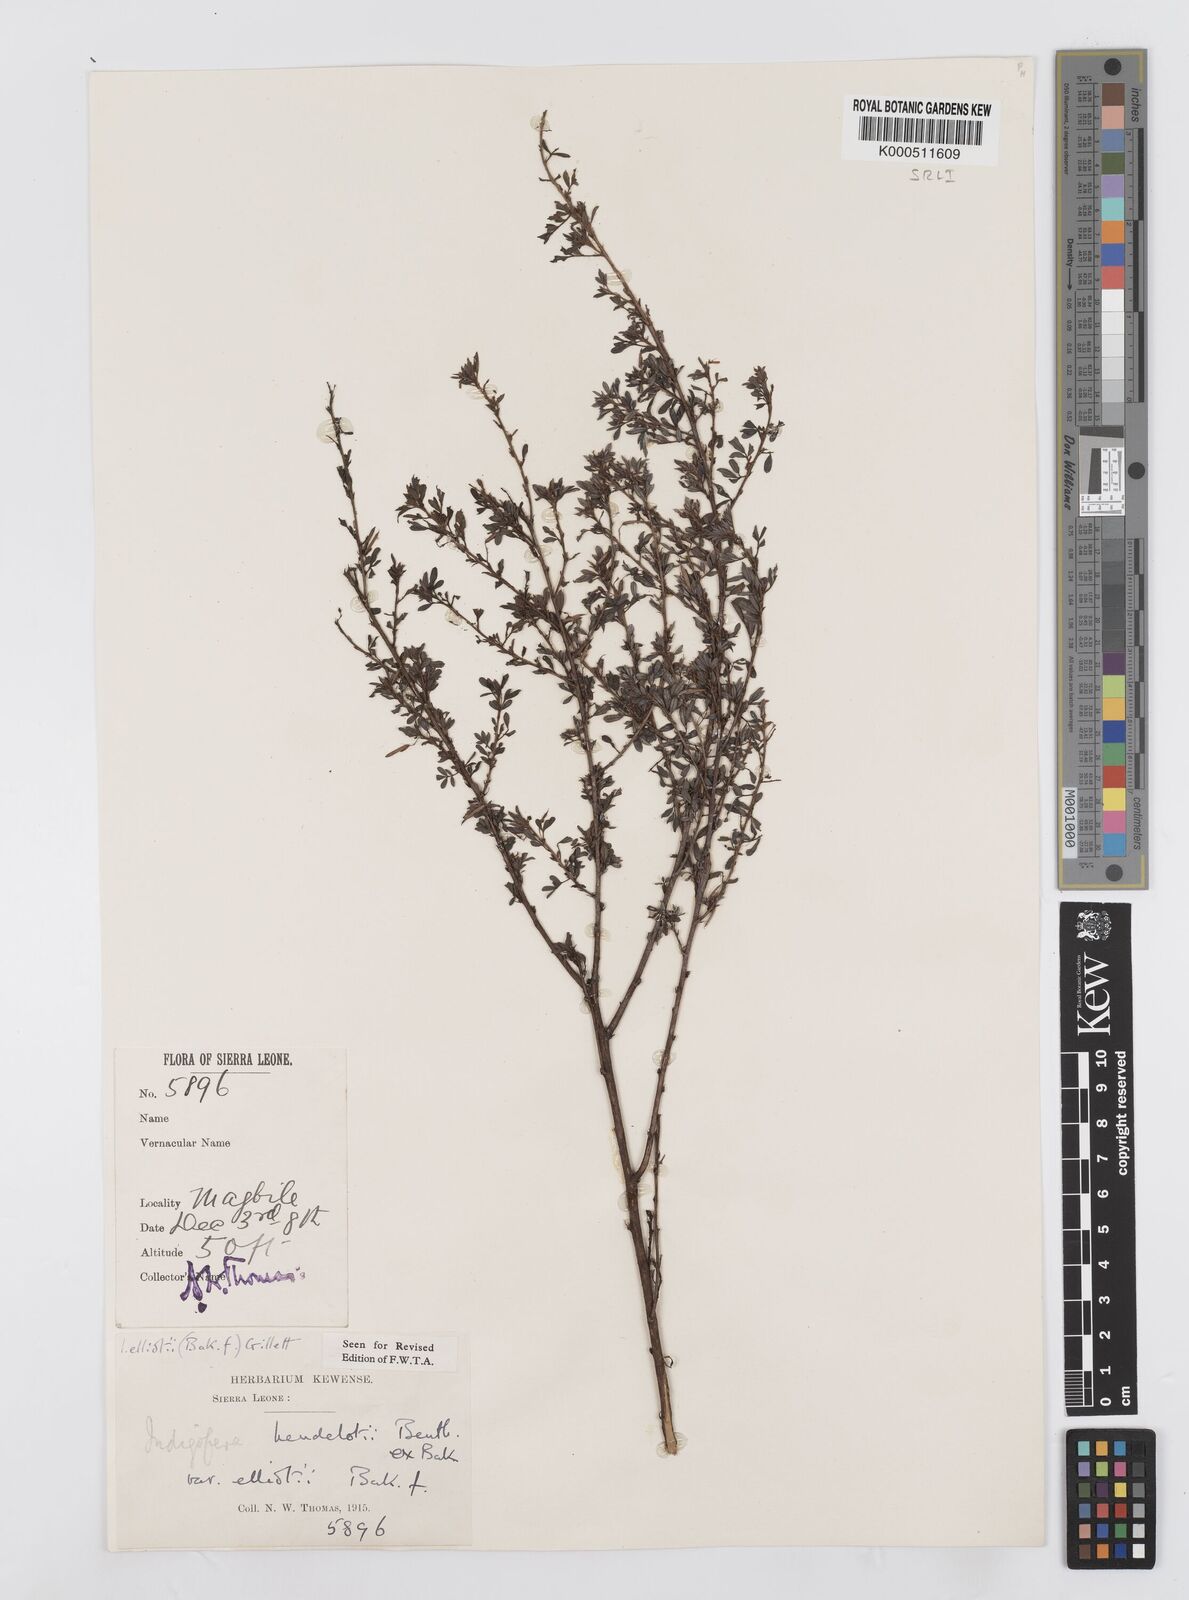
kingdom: Plantae
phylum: Tracheophyta
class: Magnoliopsida
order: Fabales
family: Fabaceae
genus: Indigofera
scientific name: Indigofera elliotii
